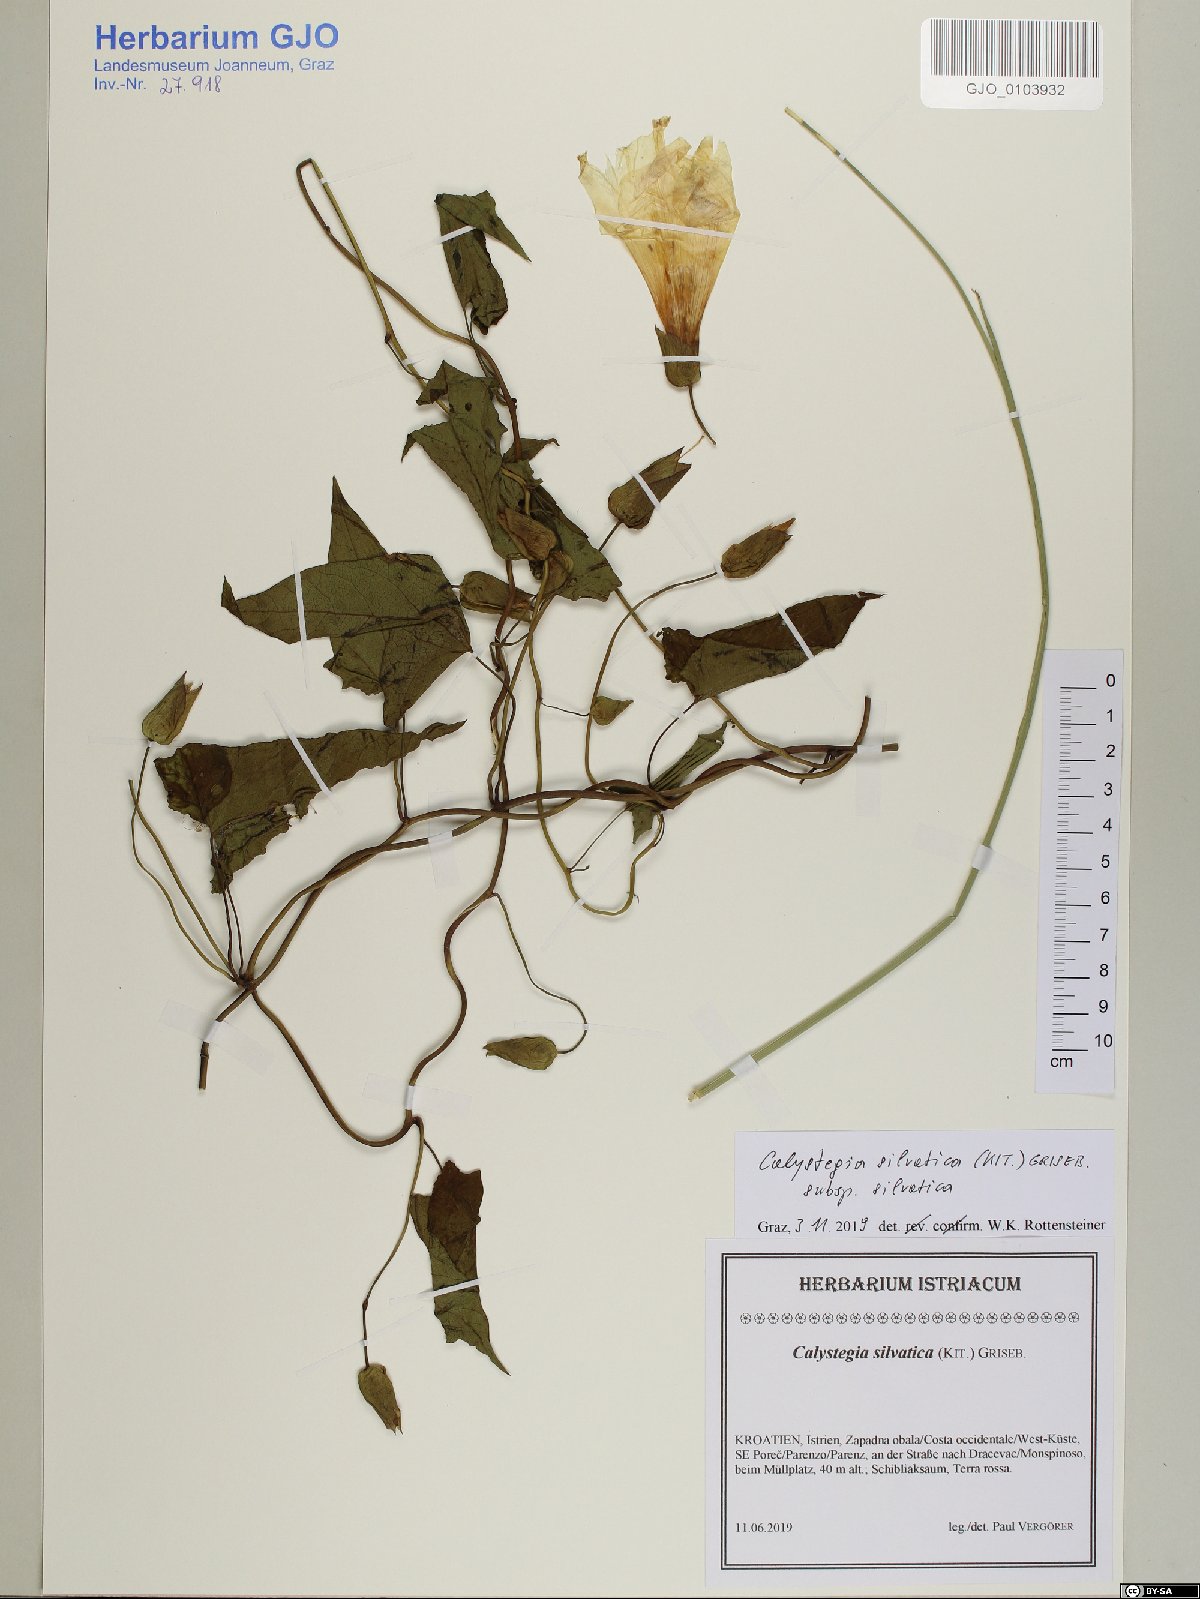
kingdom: Plantae
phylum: Tracheophyta
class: Magnoliopsida
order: Solanales
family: Convolvulaceae
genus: Calystegia
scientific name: Calystegia silvatica
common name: Large bindweed
